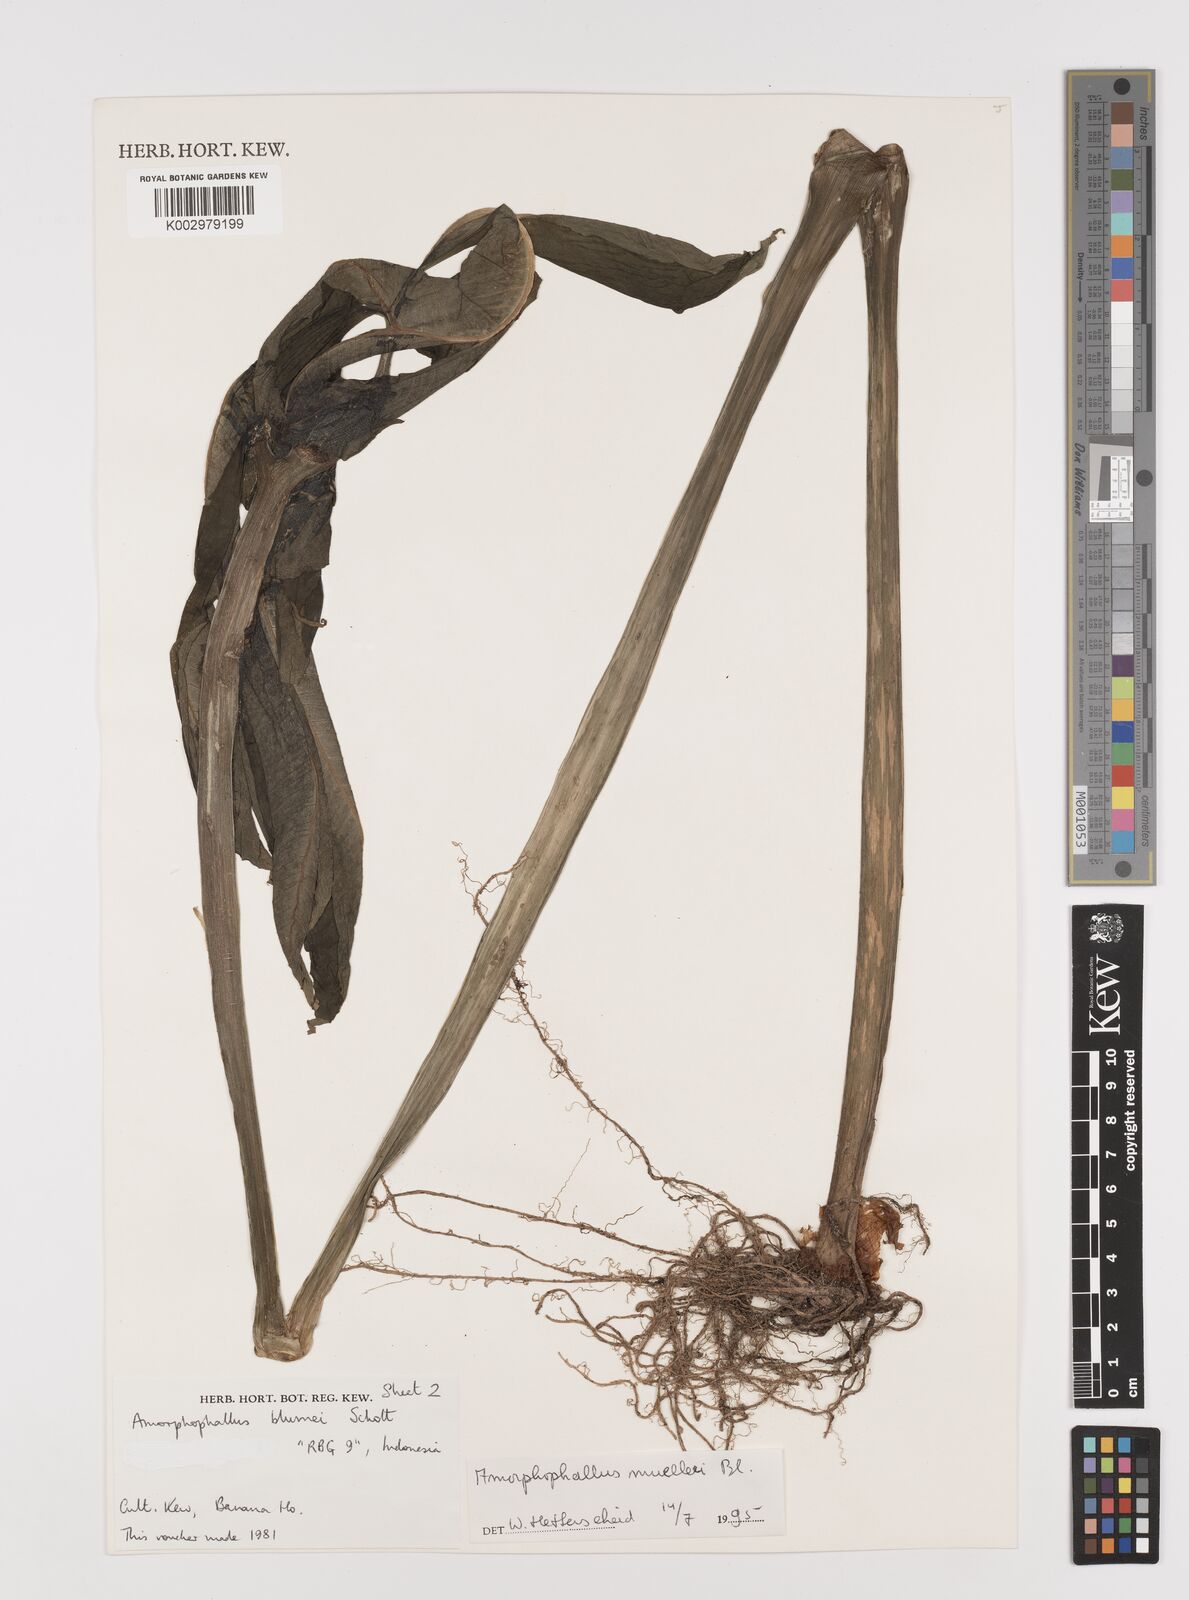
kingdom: Plantae
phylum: Tracheophyta
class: Liliopsida
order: Alismatales
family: Araceae
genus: Amorphophallus
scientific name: Amorphophallus muelleri
